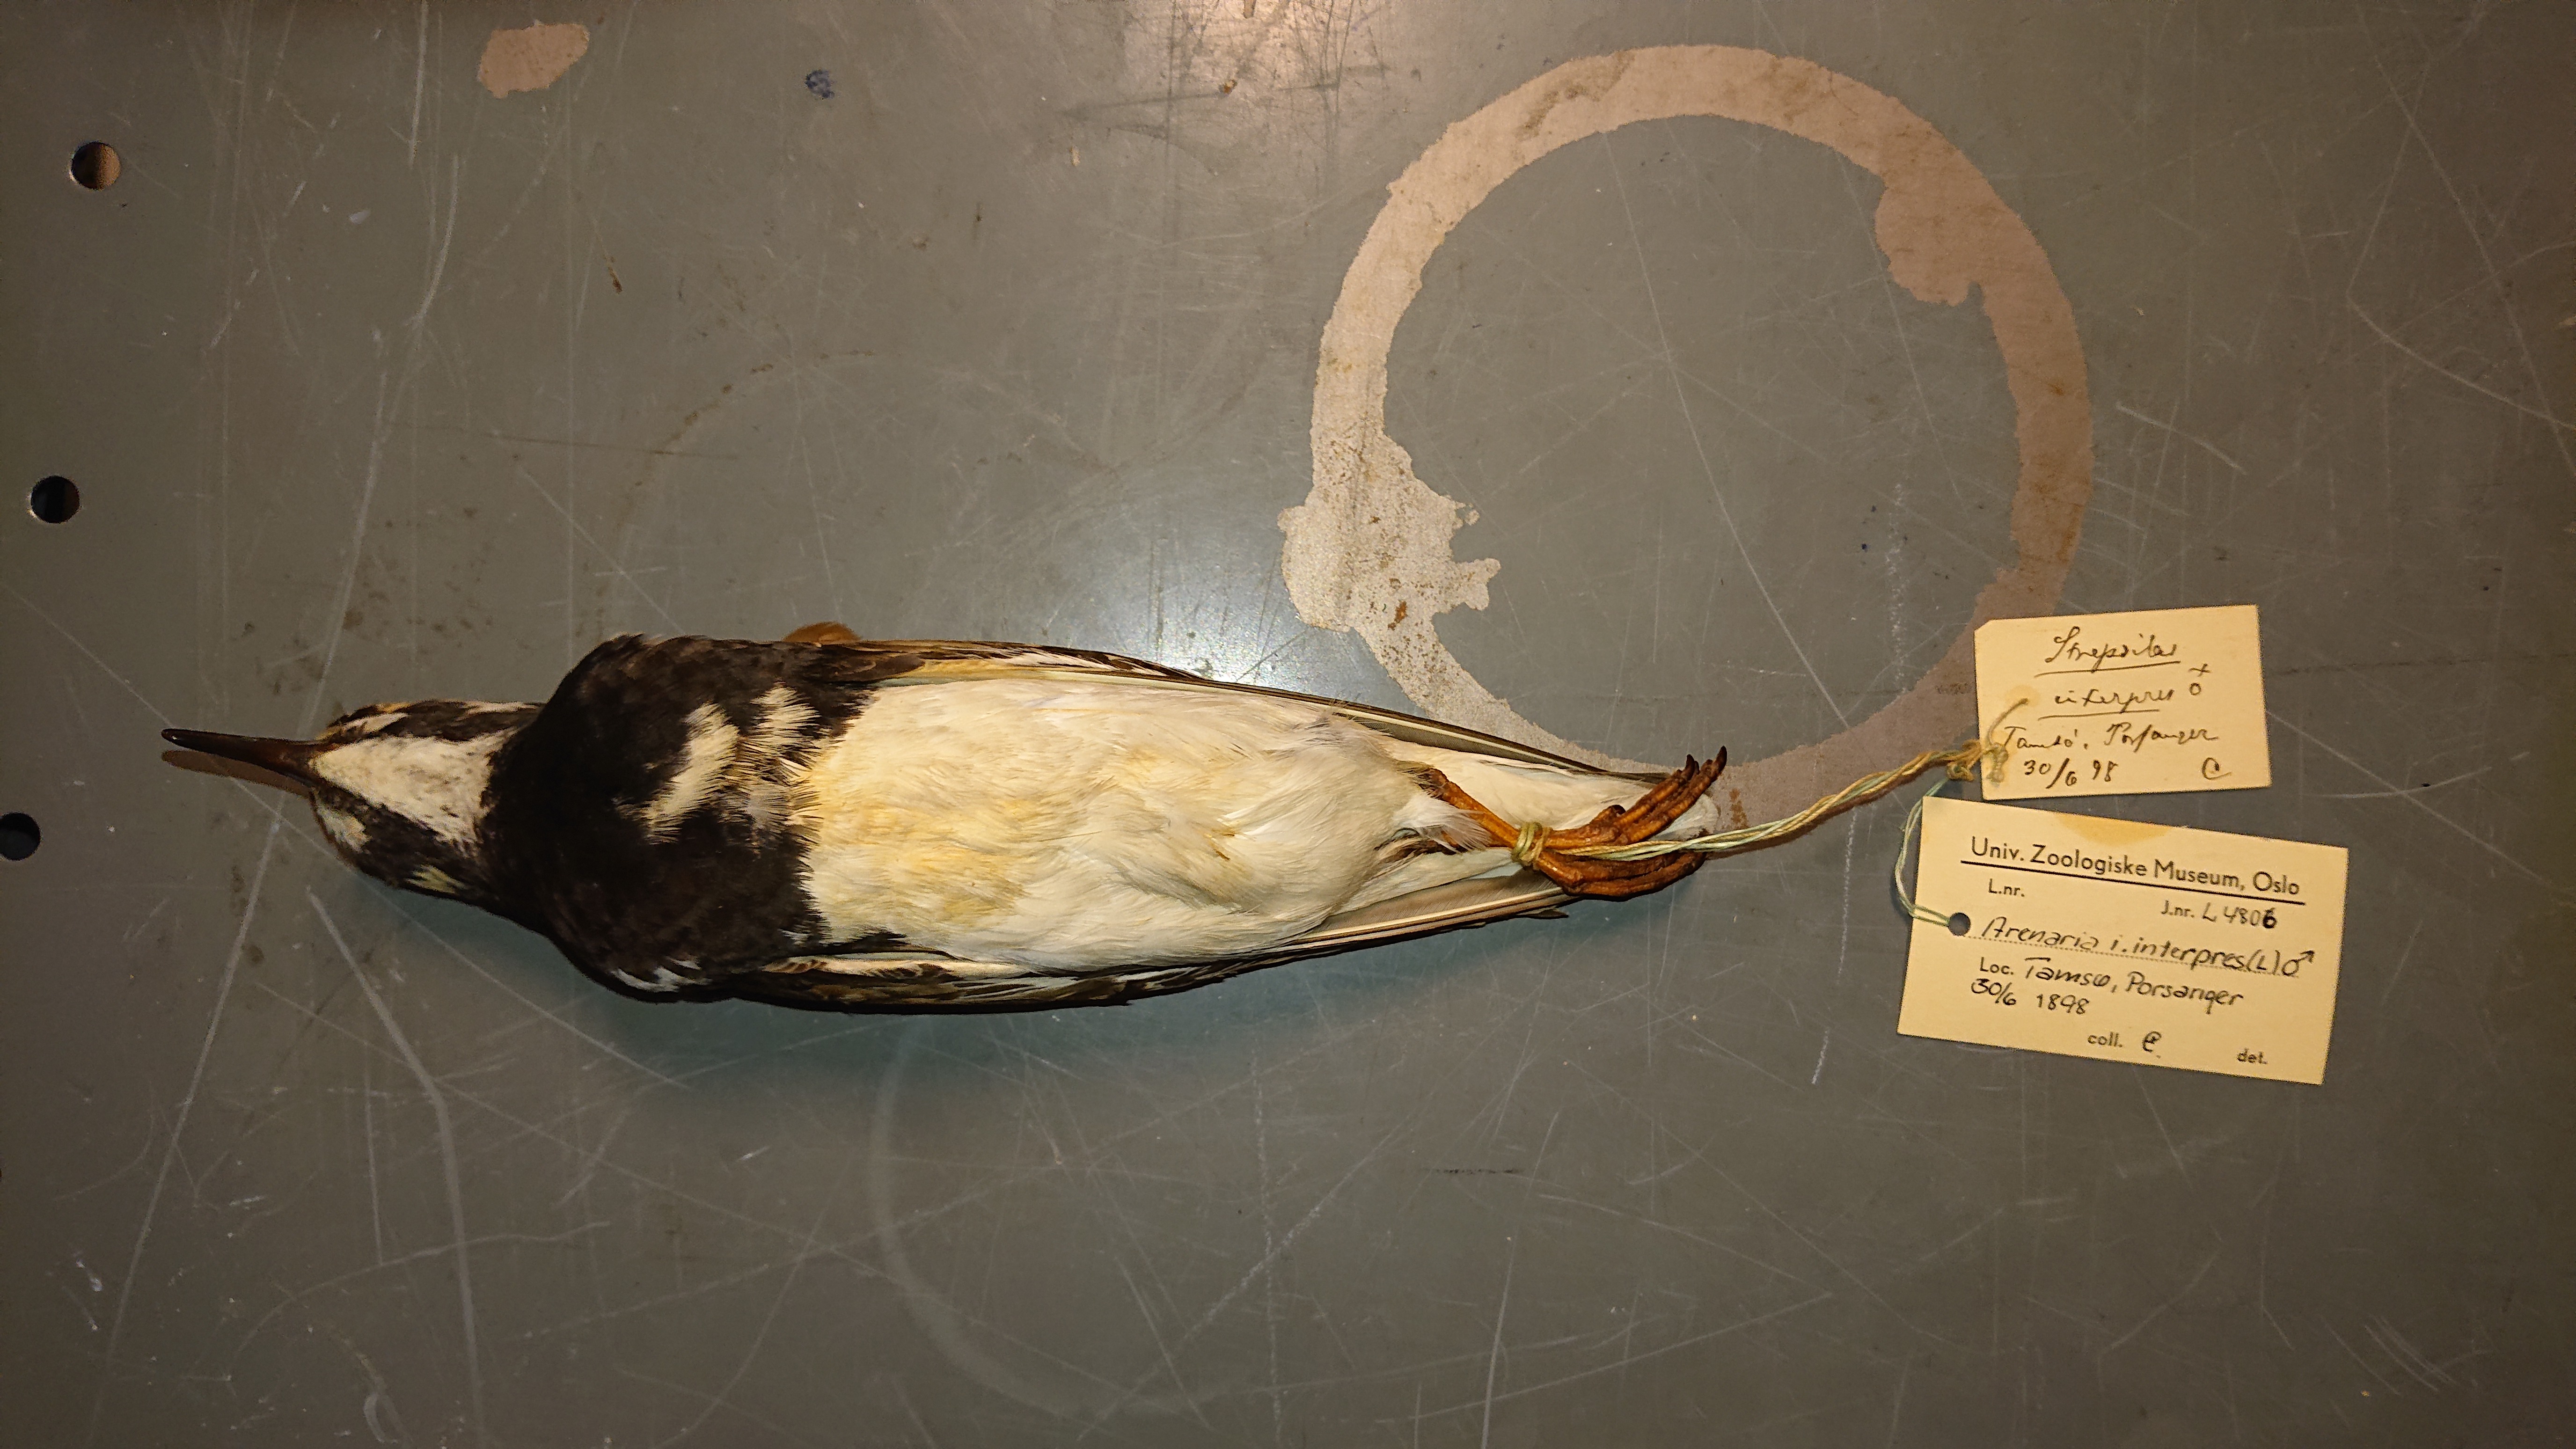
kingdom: Animalia
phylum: Chordata
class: Aves
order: Charadriiformes
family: Scolopacidae
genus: Arenaria
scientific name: Arenaria interpres
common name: Ruddy turnstone
